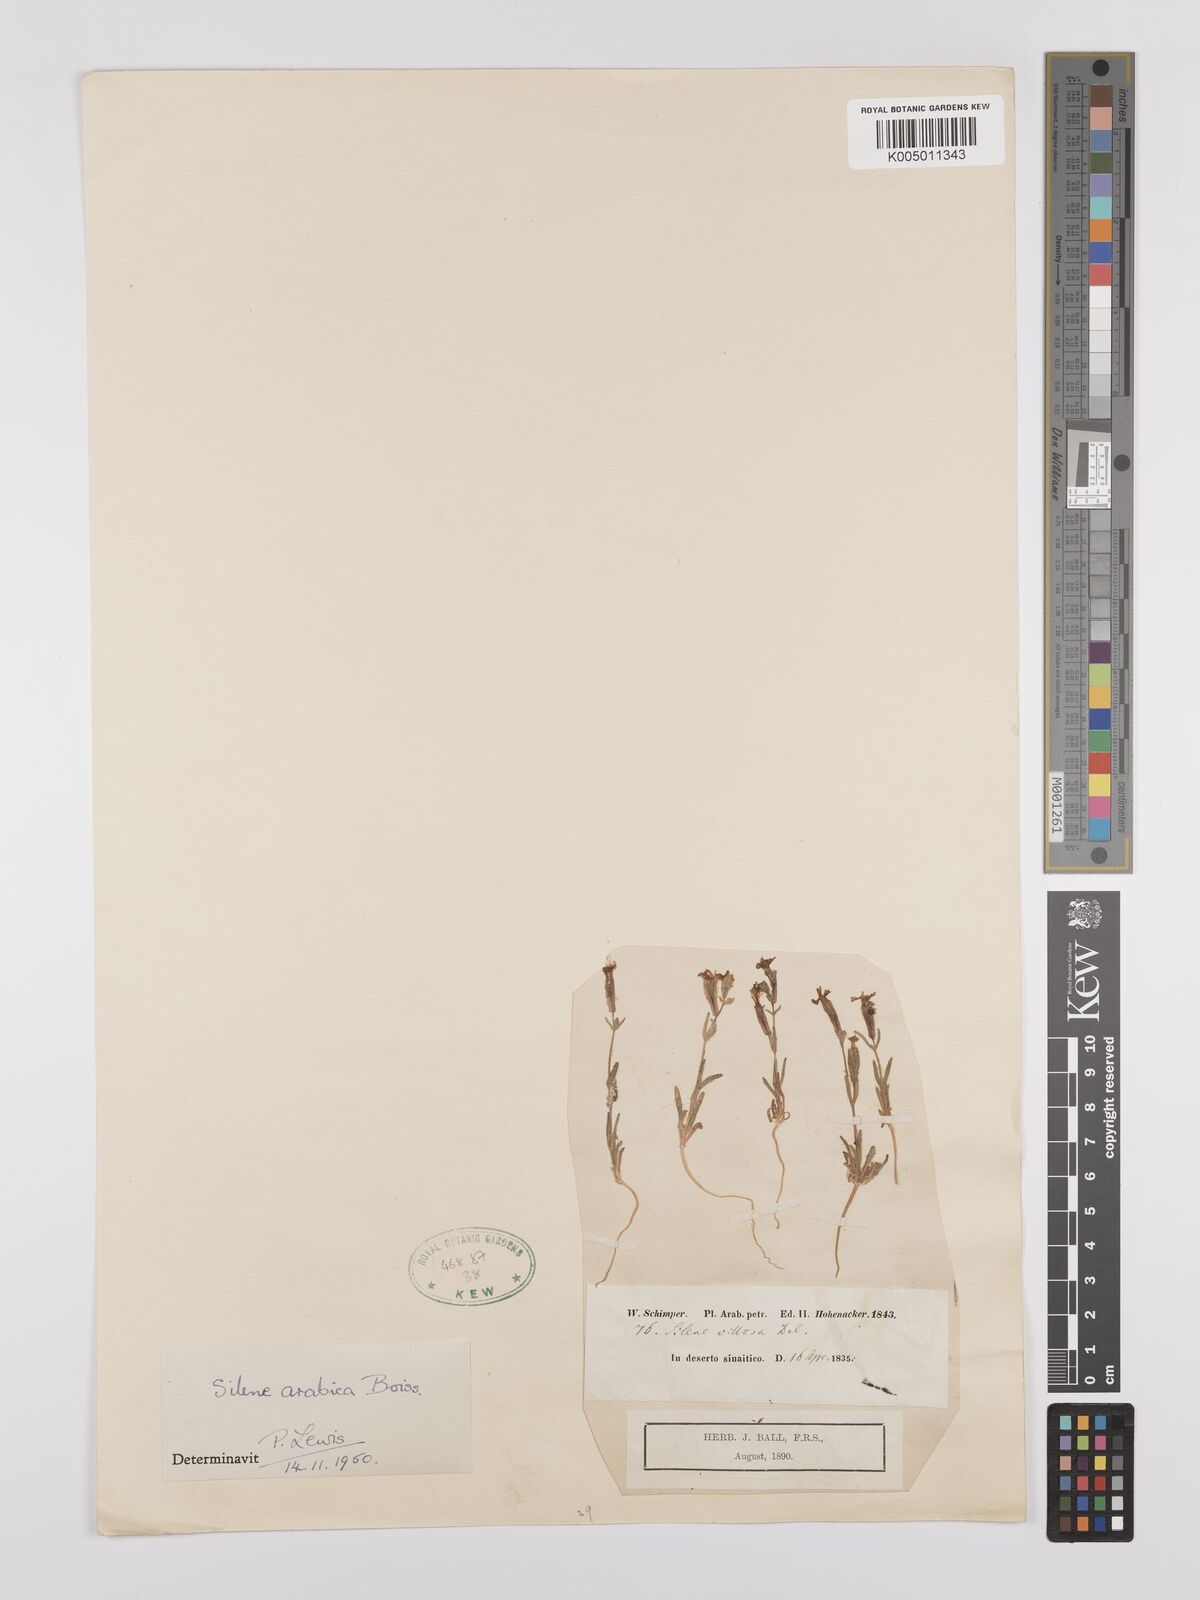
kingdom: Plantae
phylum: Tracheophyta
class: Magnoliopsida
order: Caryophyllales
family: Caryophyllaceae
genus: Silene
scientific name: Silene arabica
